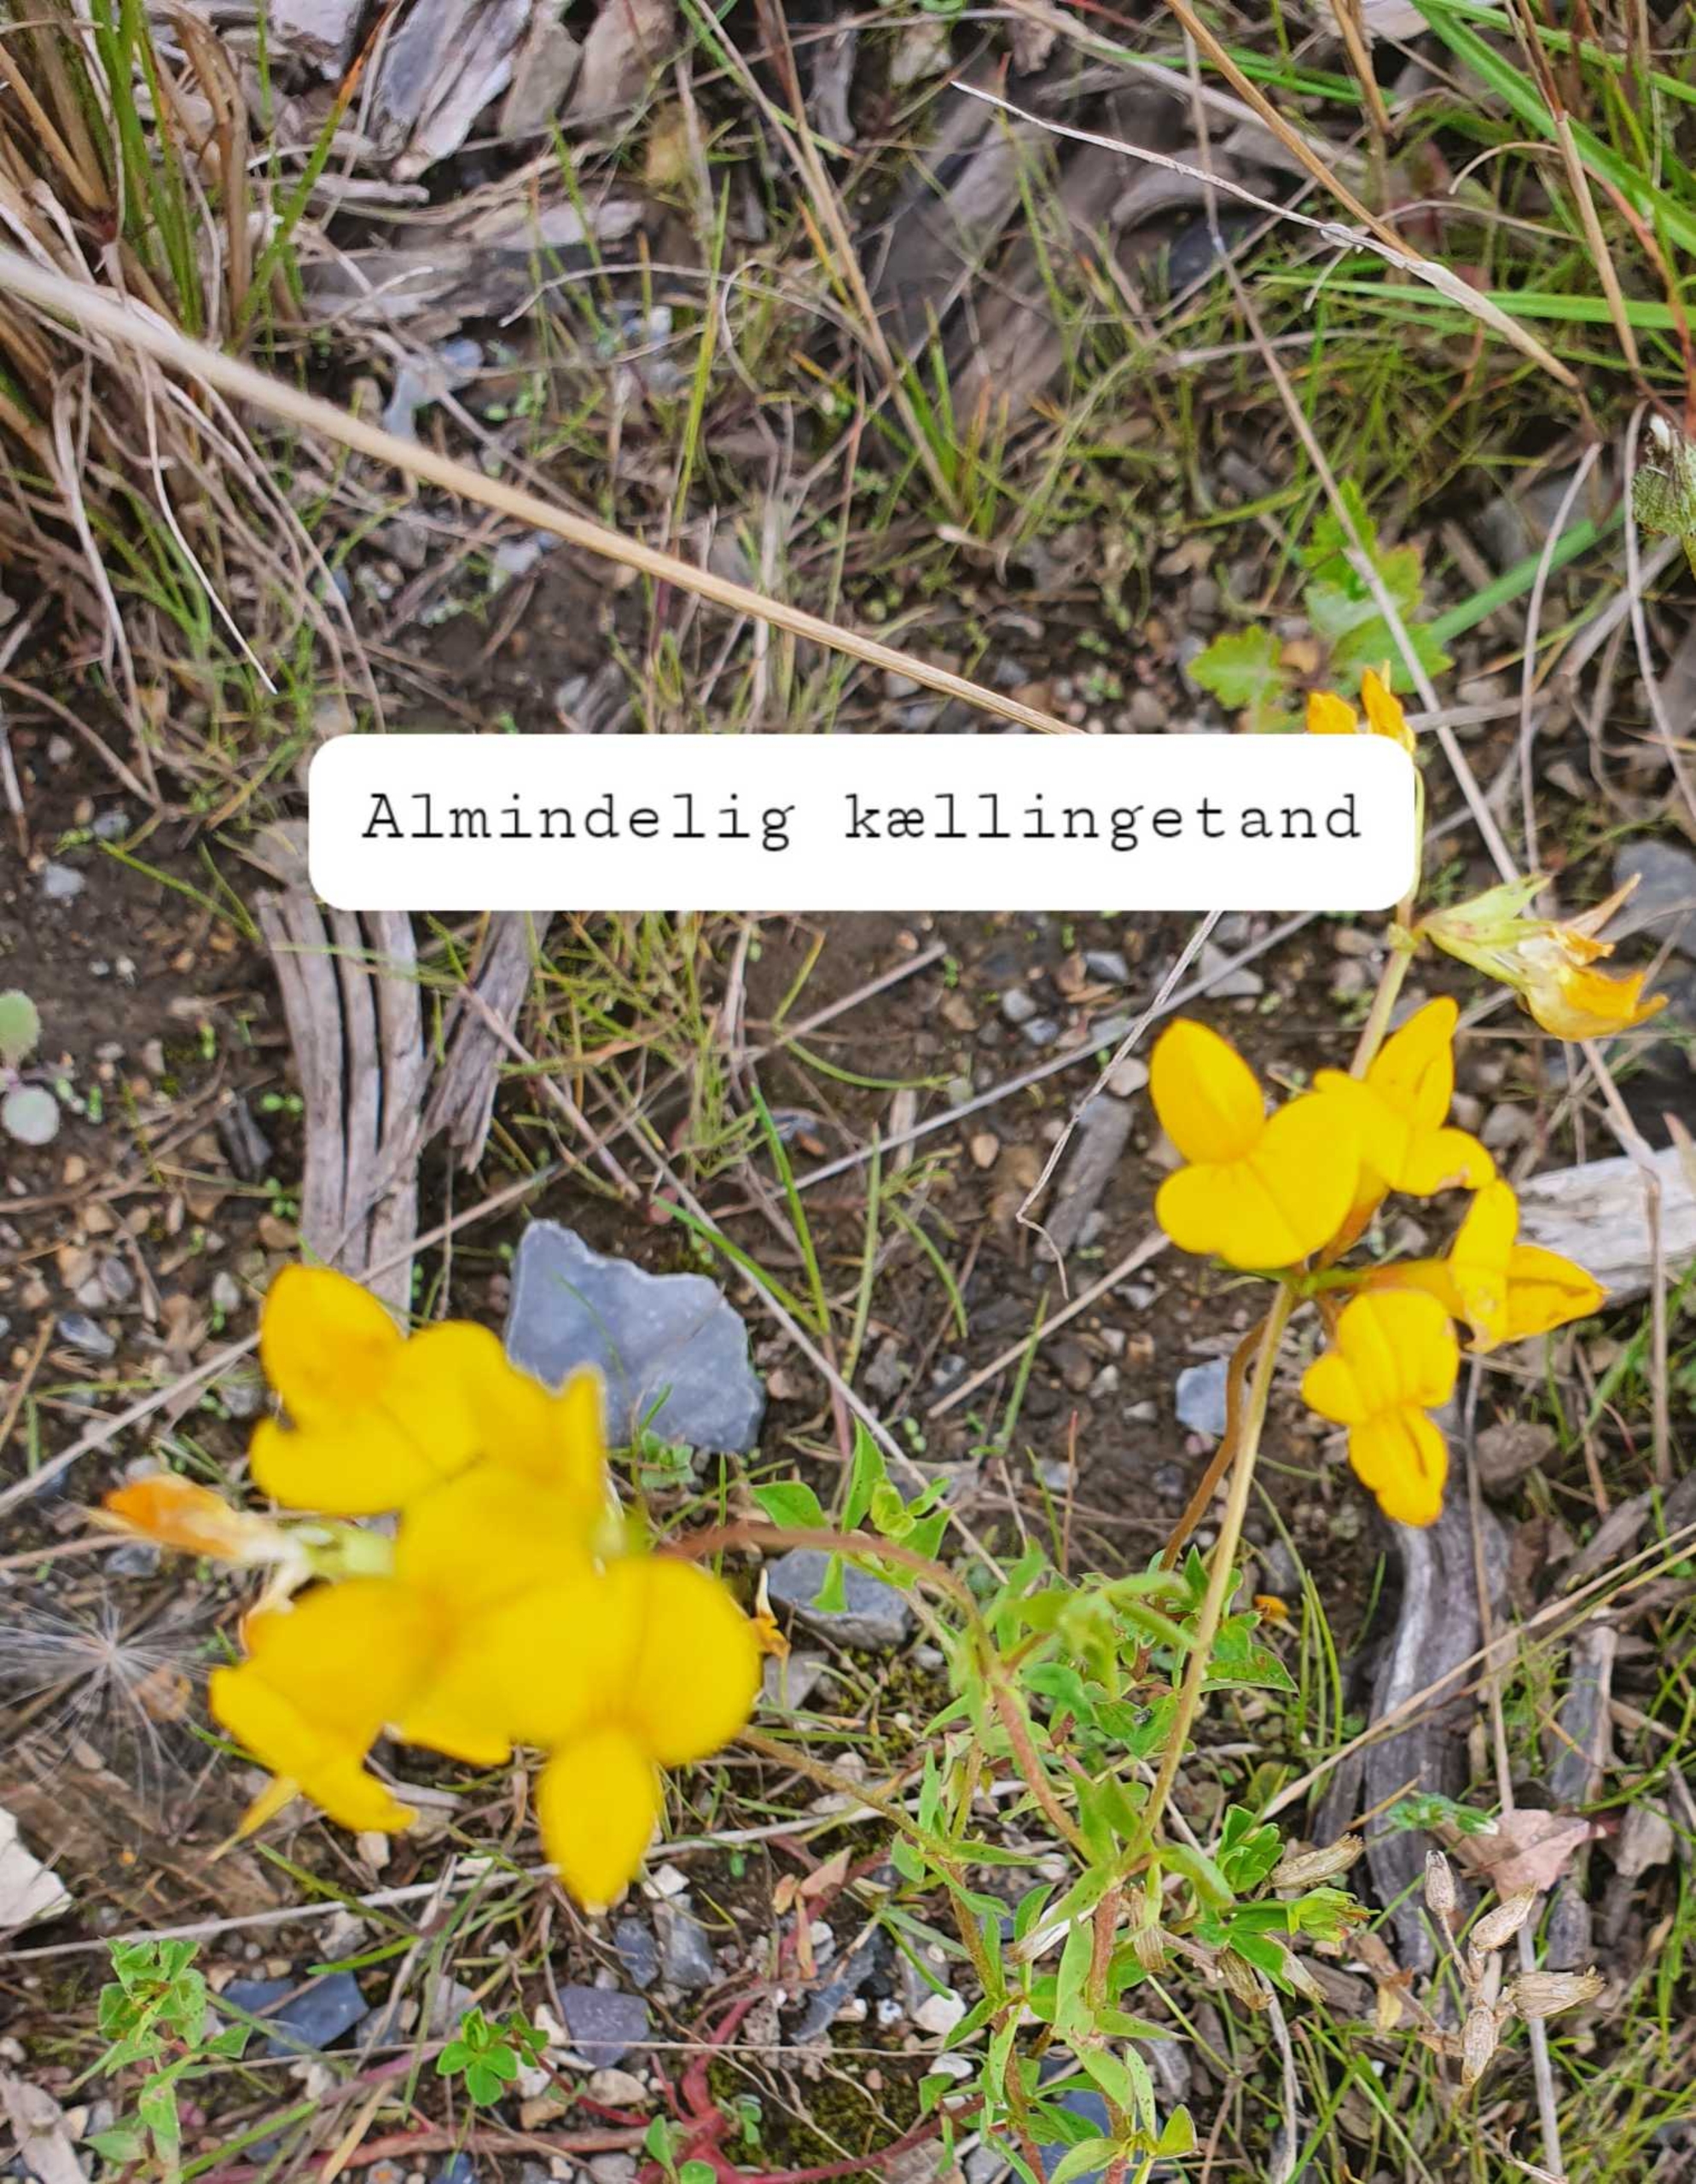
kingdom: Plantae
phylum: Tracheophyta
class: Magnoliopsida
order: Fabales
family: Fabaceae
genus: Lotus
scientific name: Lotus corniculatus
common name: Almindelig kællingetand
